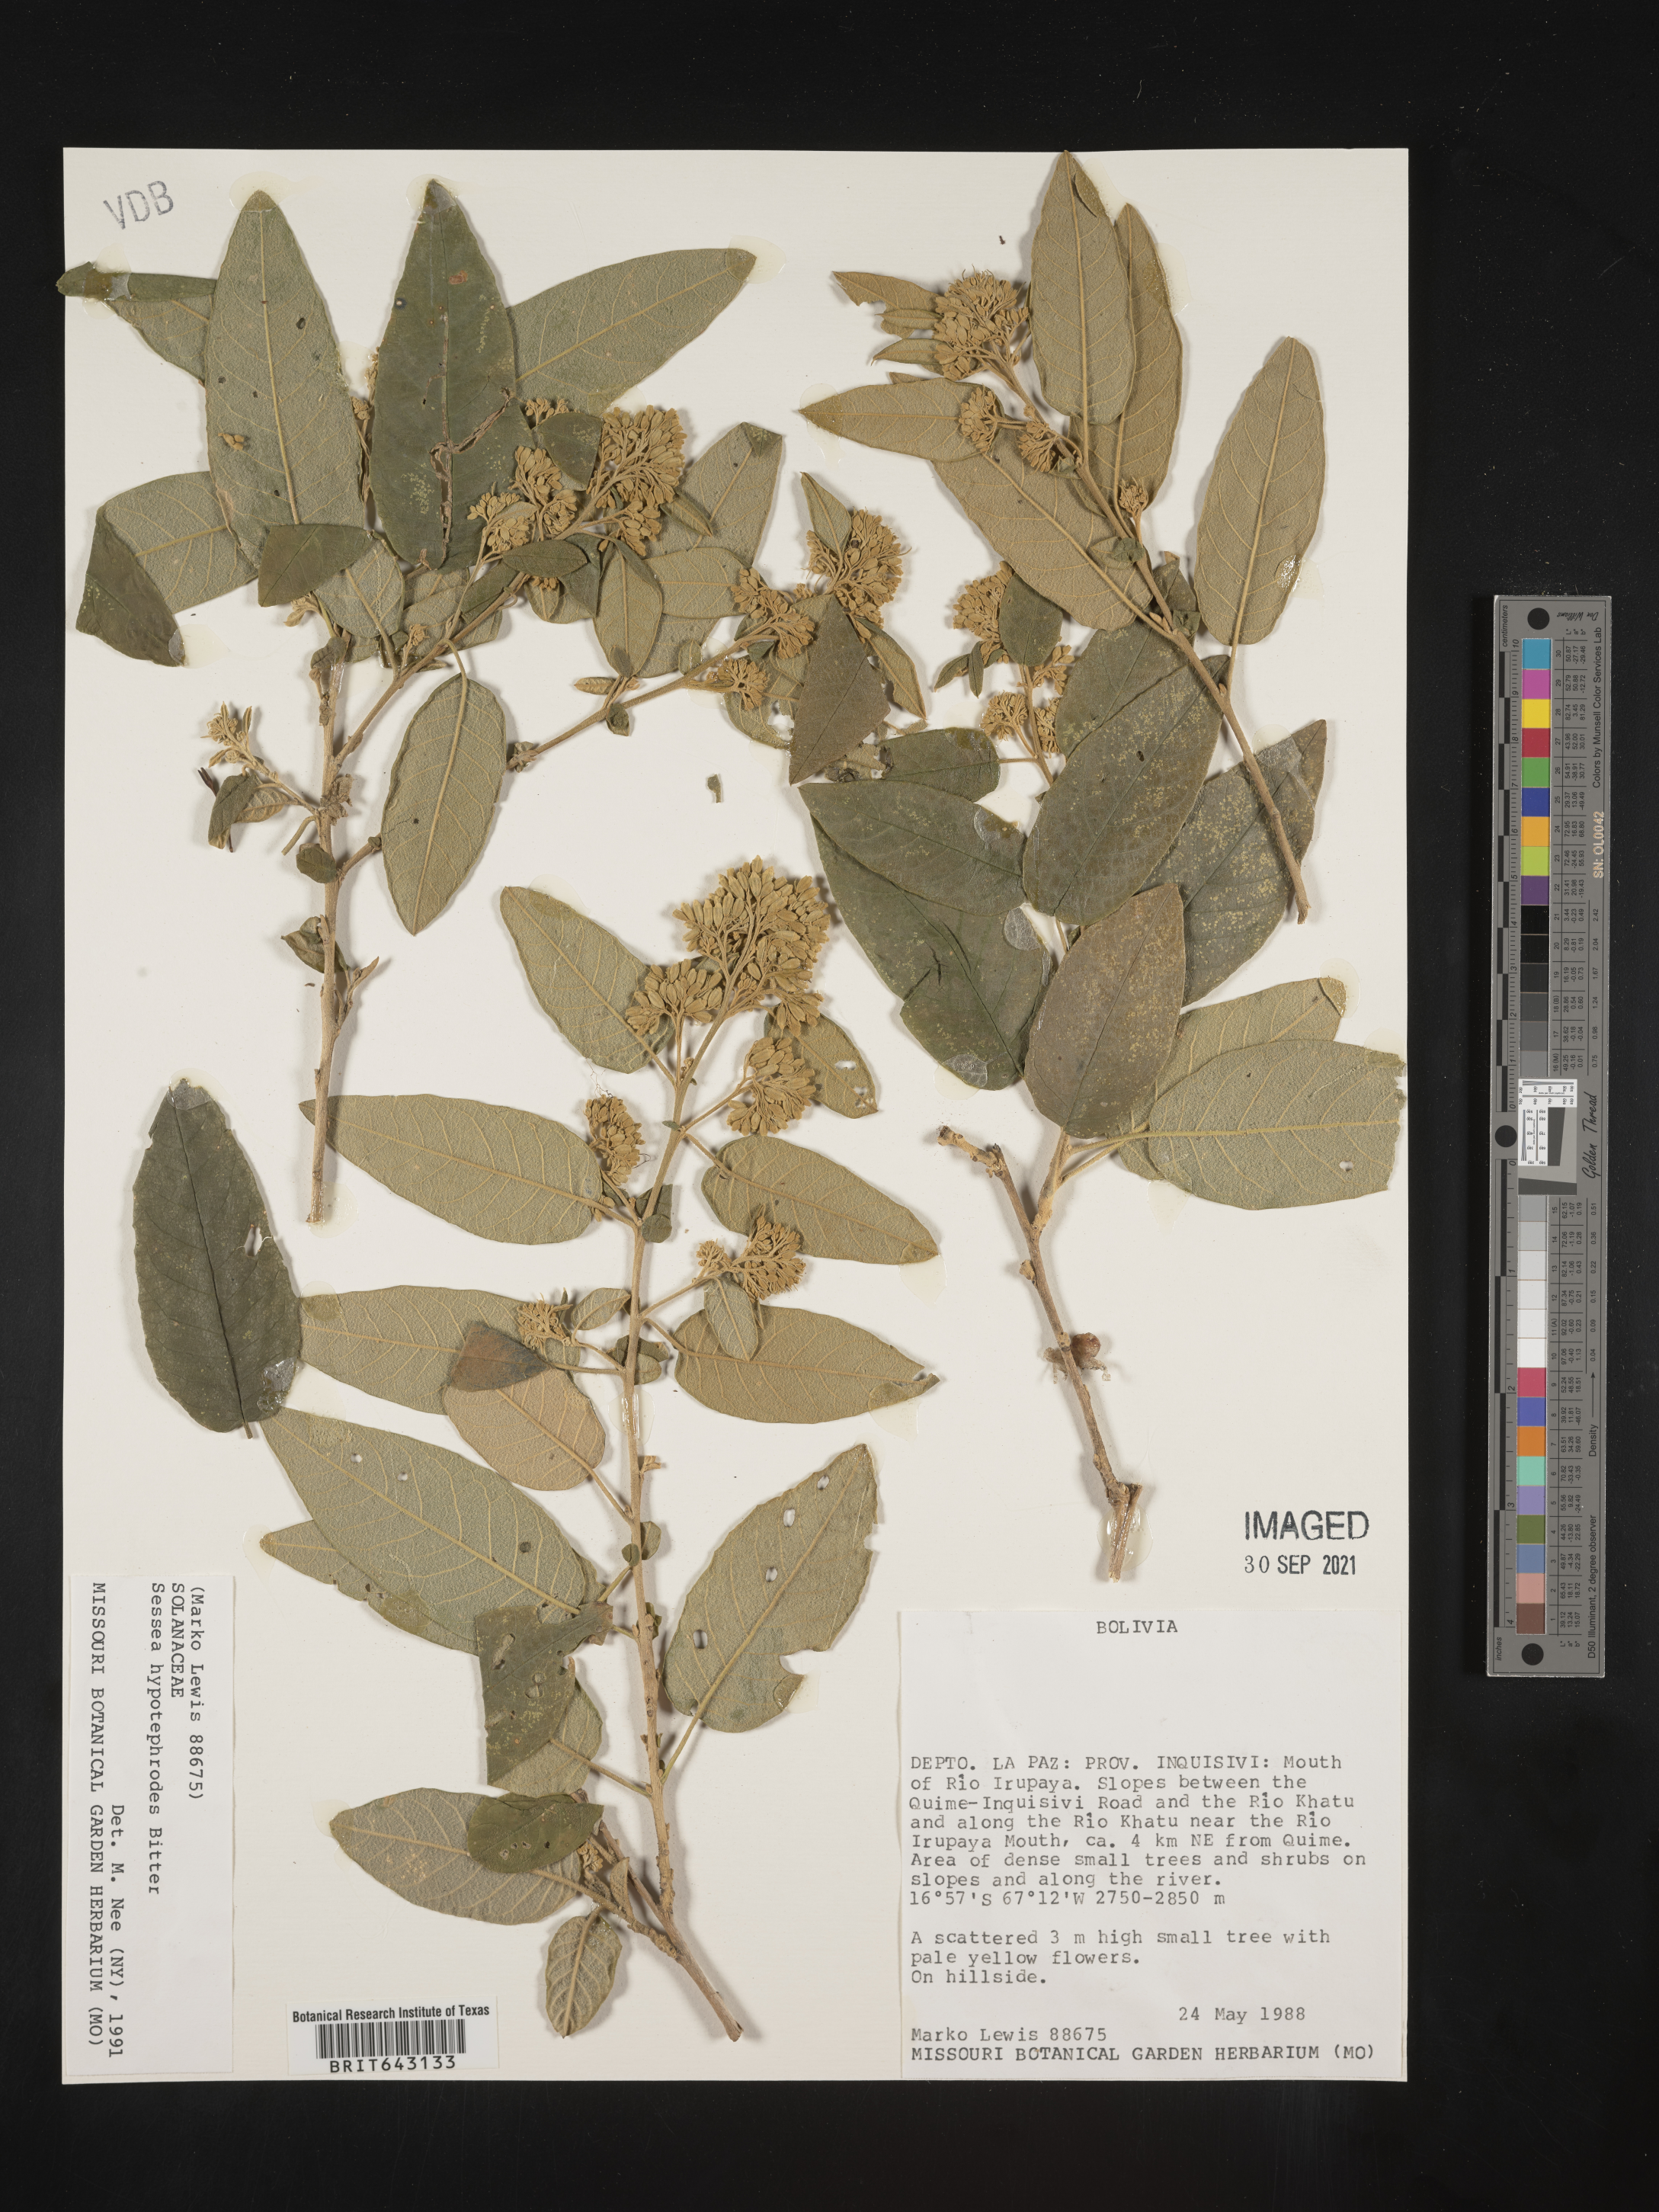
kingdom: Plantae
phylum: Tracheophyta
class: Magnoliopsida
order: Solanales
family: Solanaceae
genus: Sessea
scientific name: Sessea
